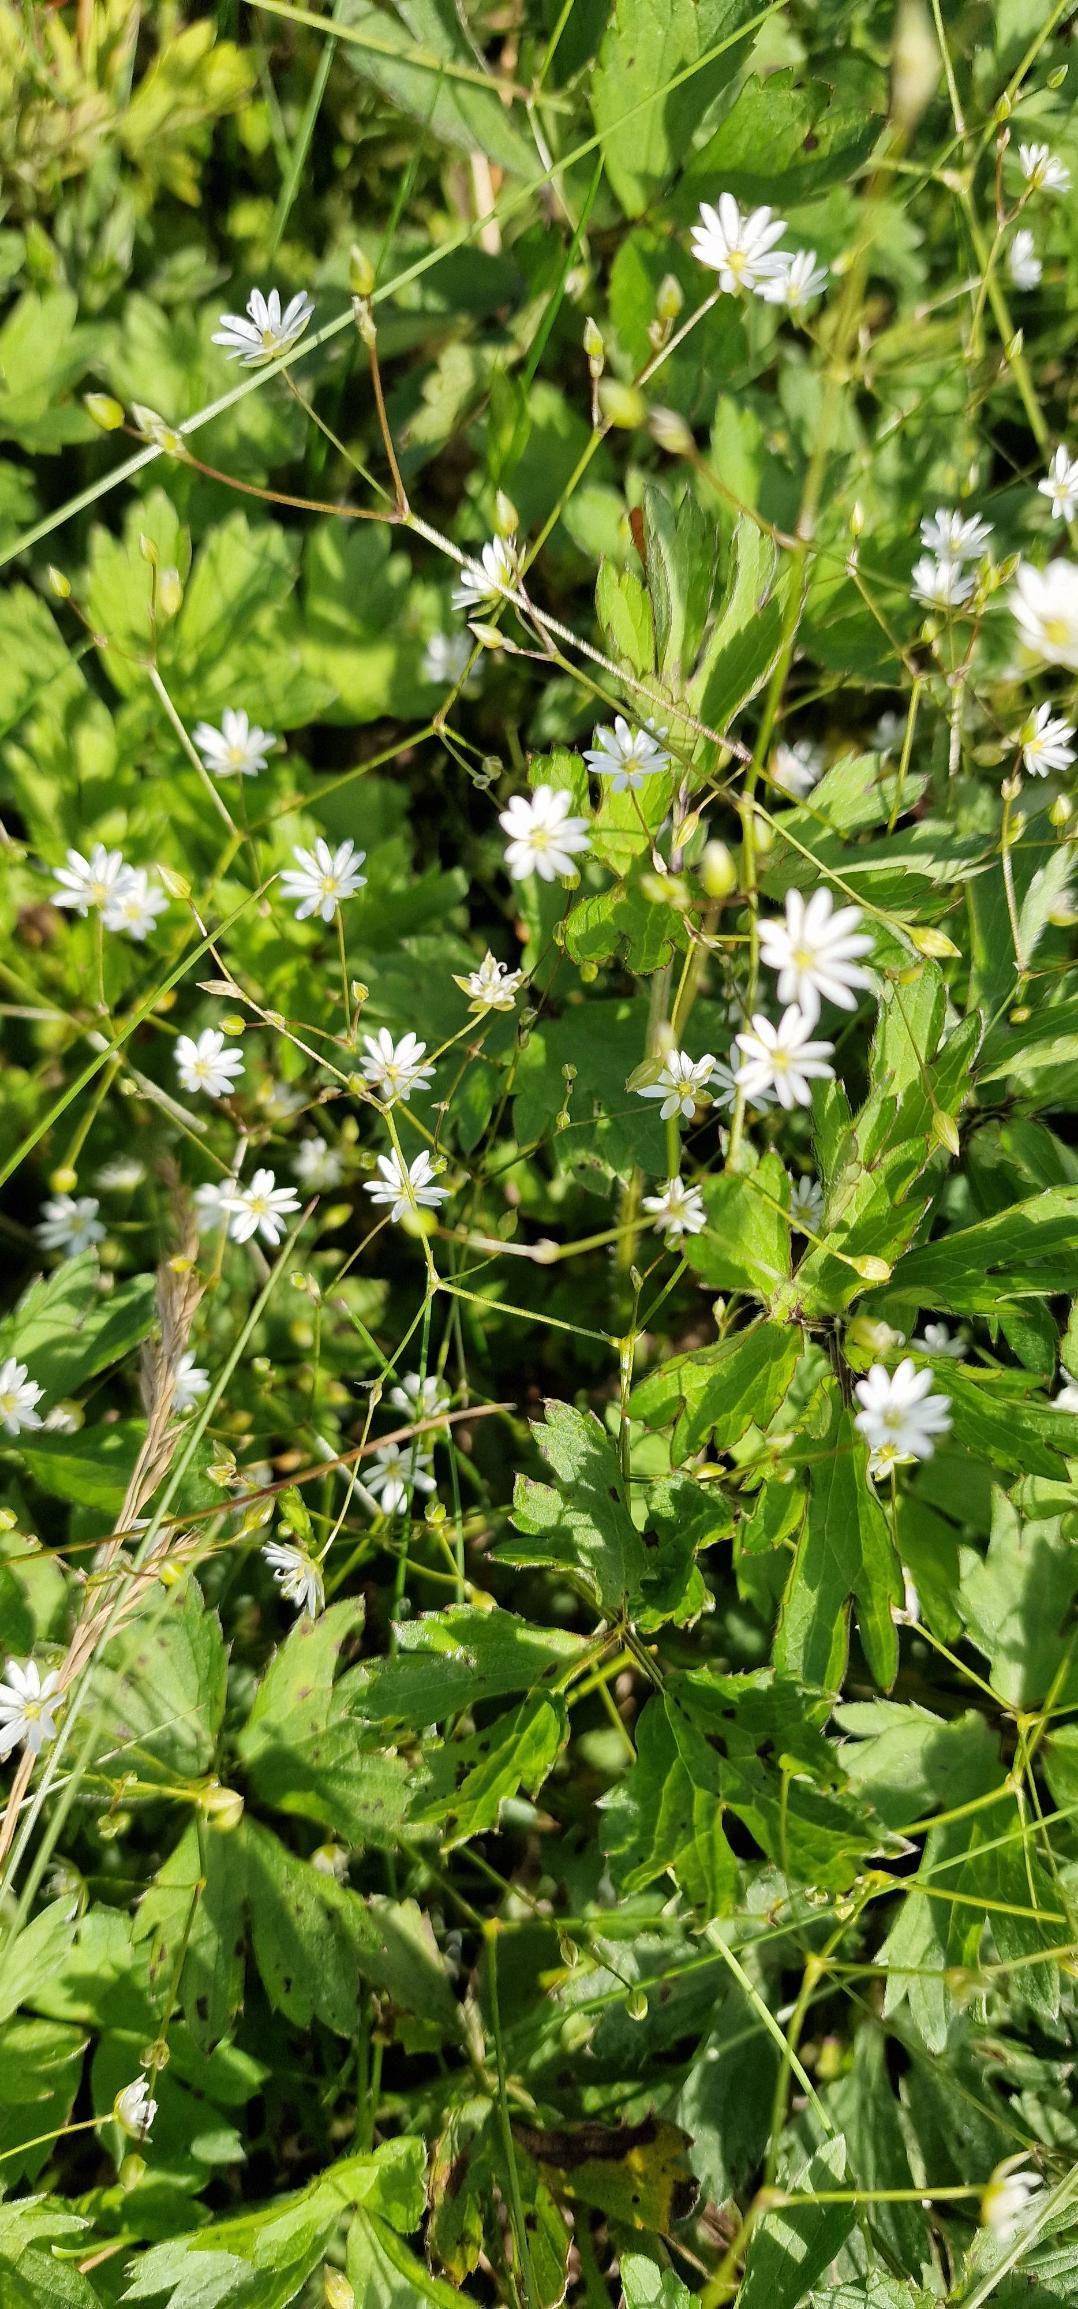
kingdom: Plantae
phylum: Tracheophyta
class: Magnoliopsida
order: Caryophyllales
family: Caryophyllaceae
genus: Stellaria
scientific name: Stellaria graminea
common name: Græsbladet fladstjerne
